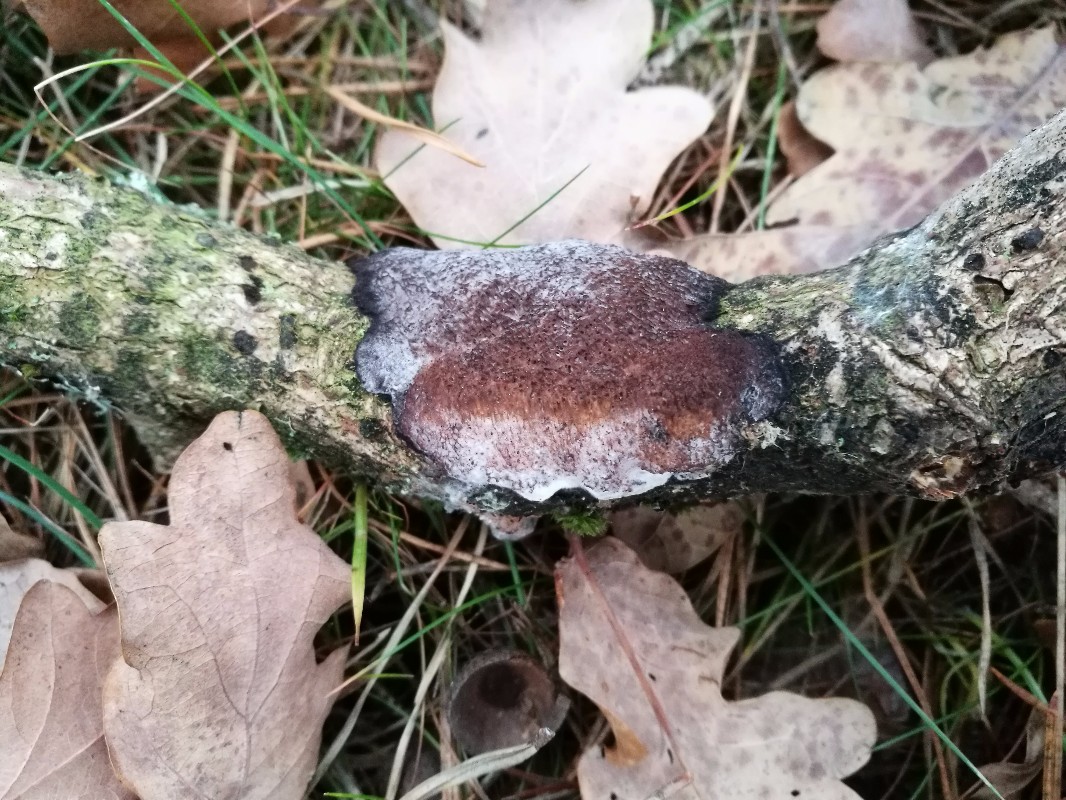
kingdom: Fungi
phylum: Basidiomycota
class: Agaricomycetes
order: Polyporales
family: Polyporaceae
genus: Szczepkamyces
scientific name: Szczepkamyces campestris
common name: hasselporesvamp
